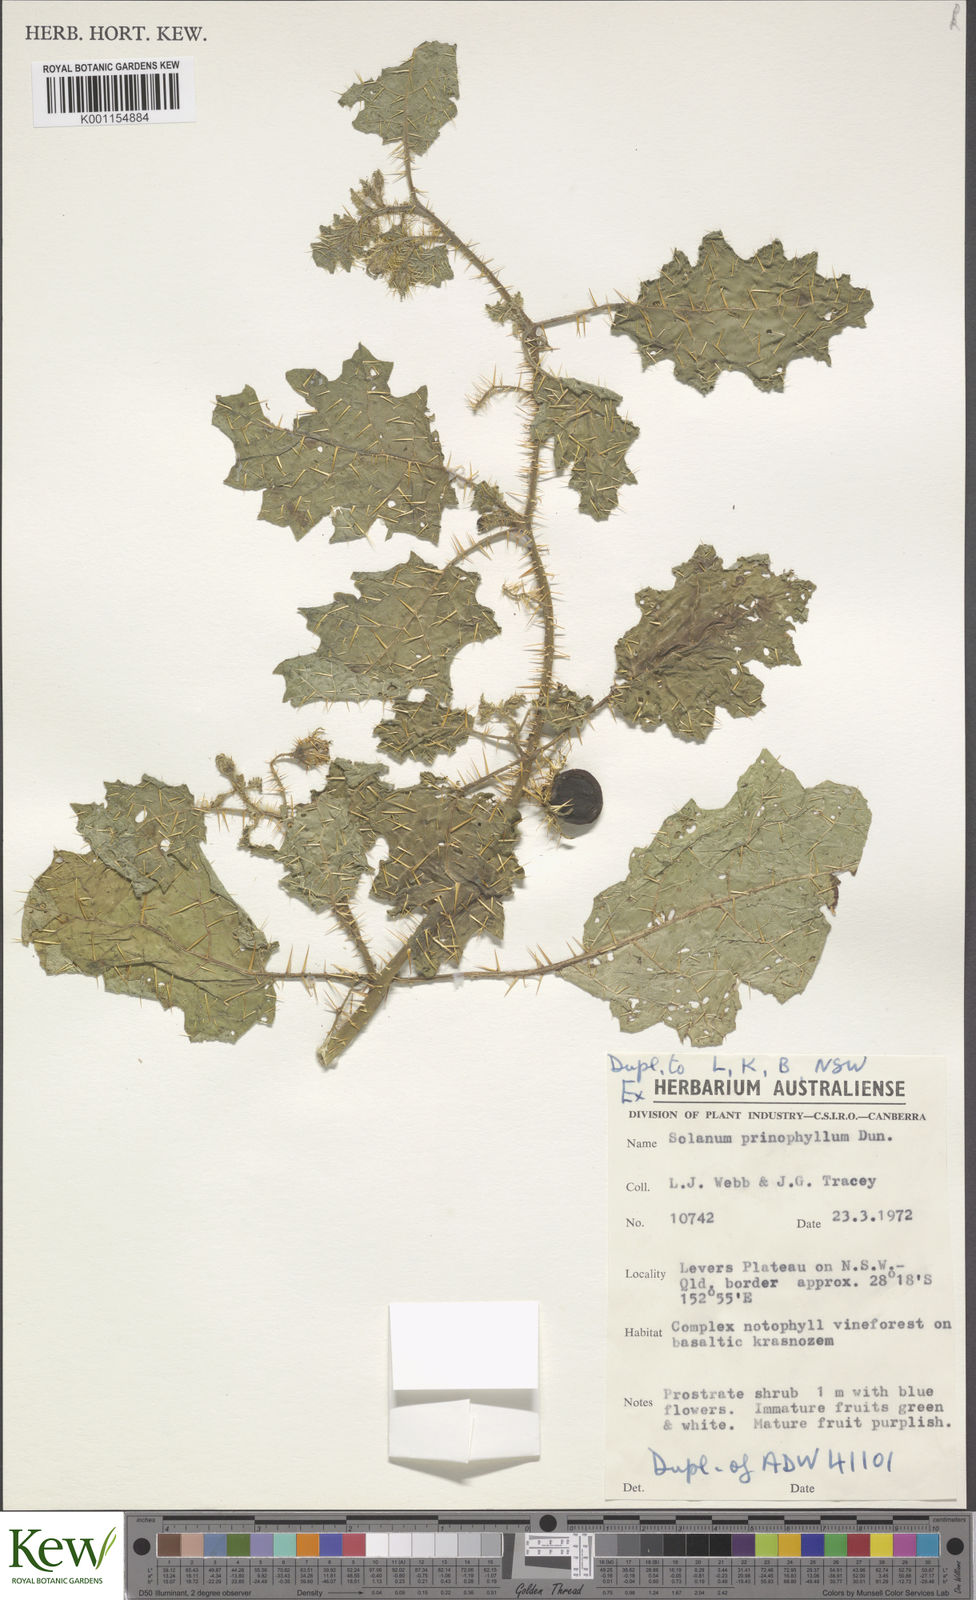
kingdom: Plantae
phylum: Tracheophyta
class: Magnoliopsida
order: Solanales
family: Solanaceae
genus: Solanum
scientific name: Solanum prinophyllum
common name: Forest nightshade
